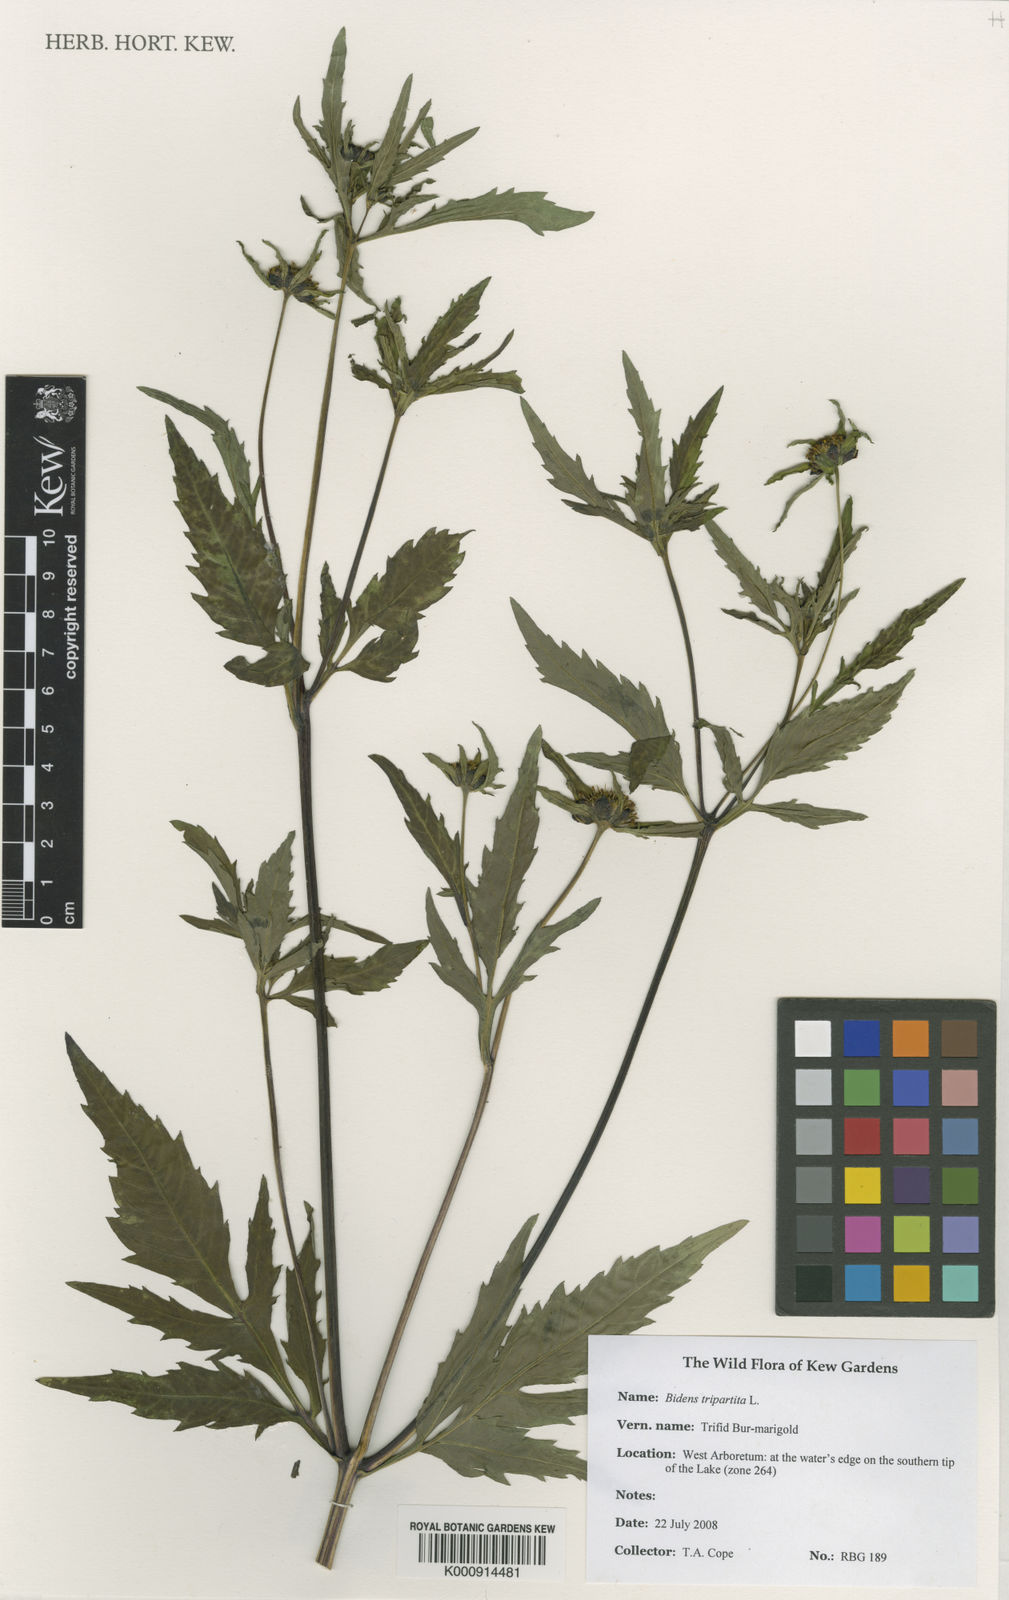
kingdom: Plantae
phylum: Tracheophyta
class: Magnoliopsida
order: Asterales
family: Asteraceae
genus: Bidens
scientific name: Bidens tripartita
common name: Trifid bur-marigold
